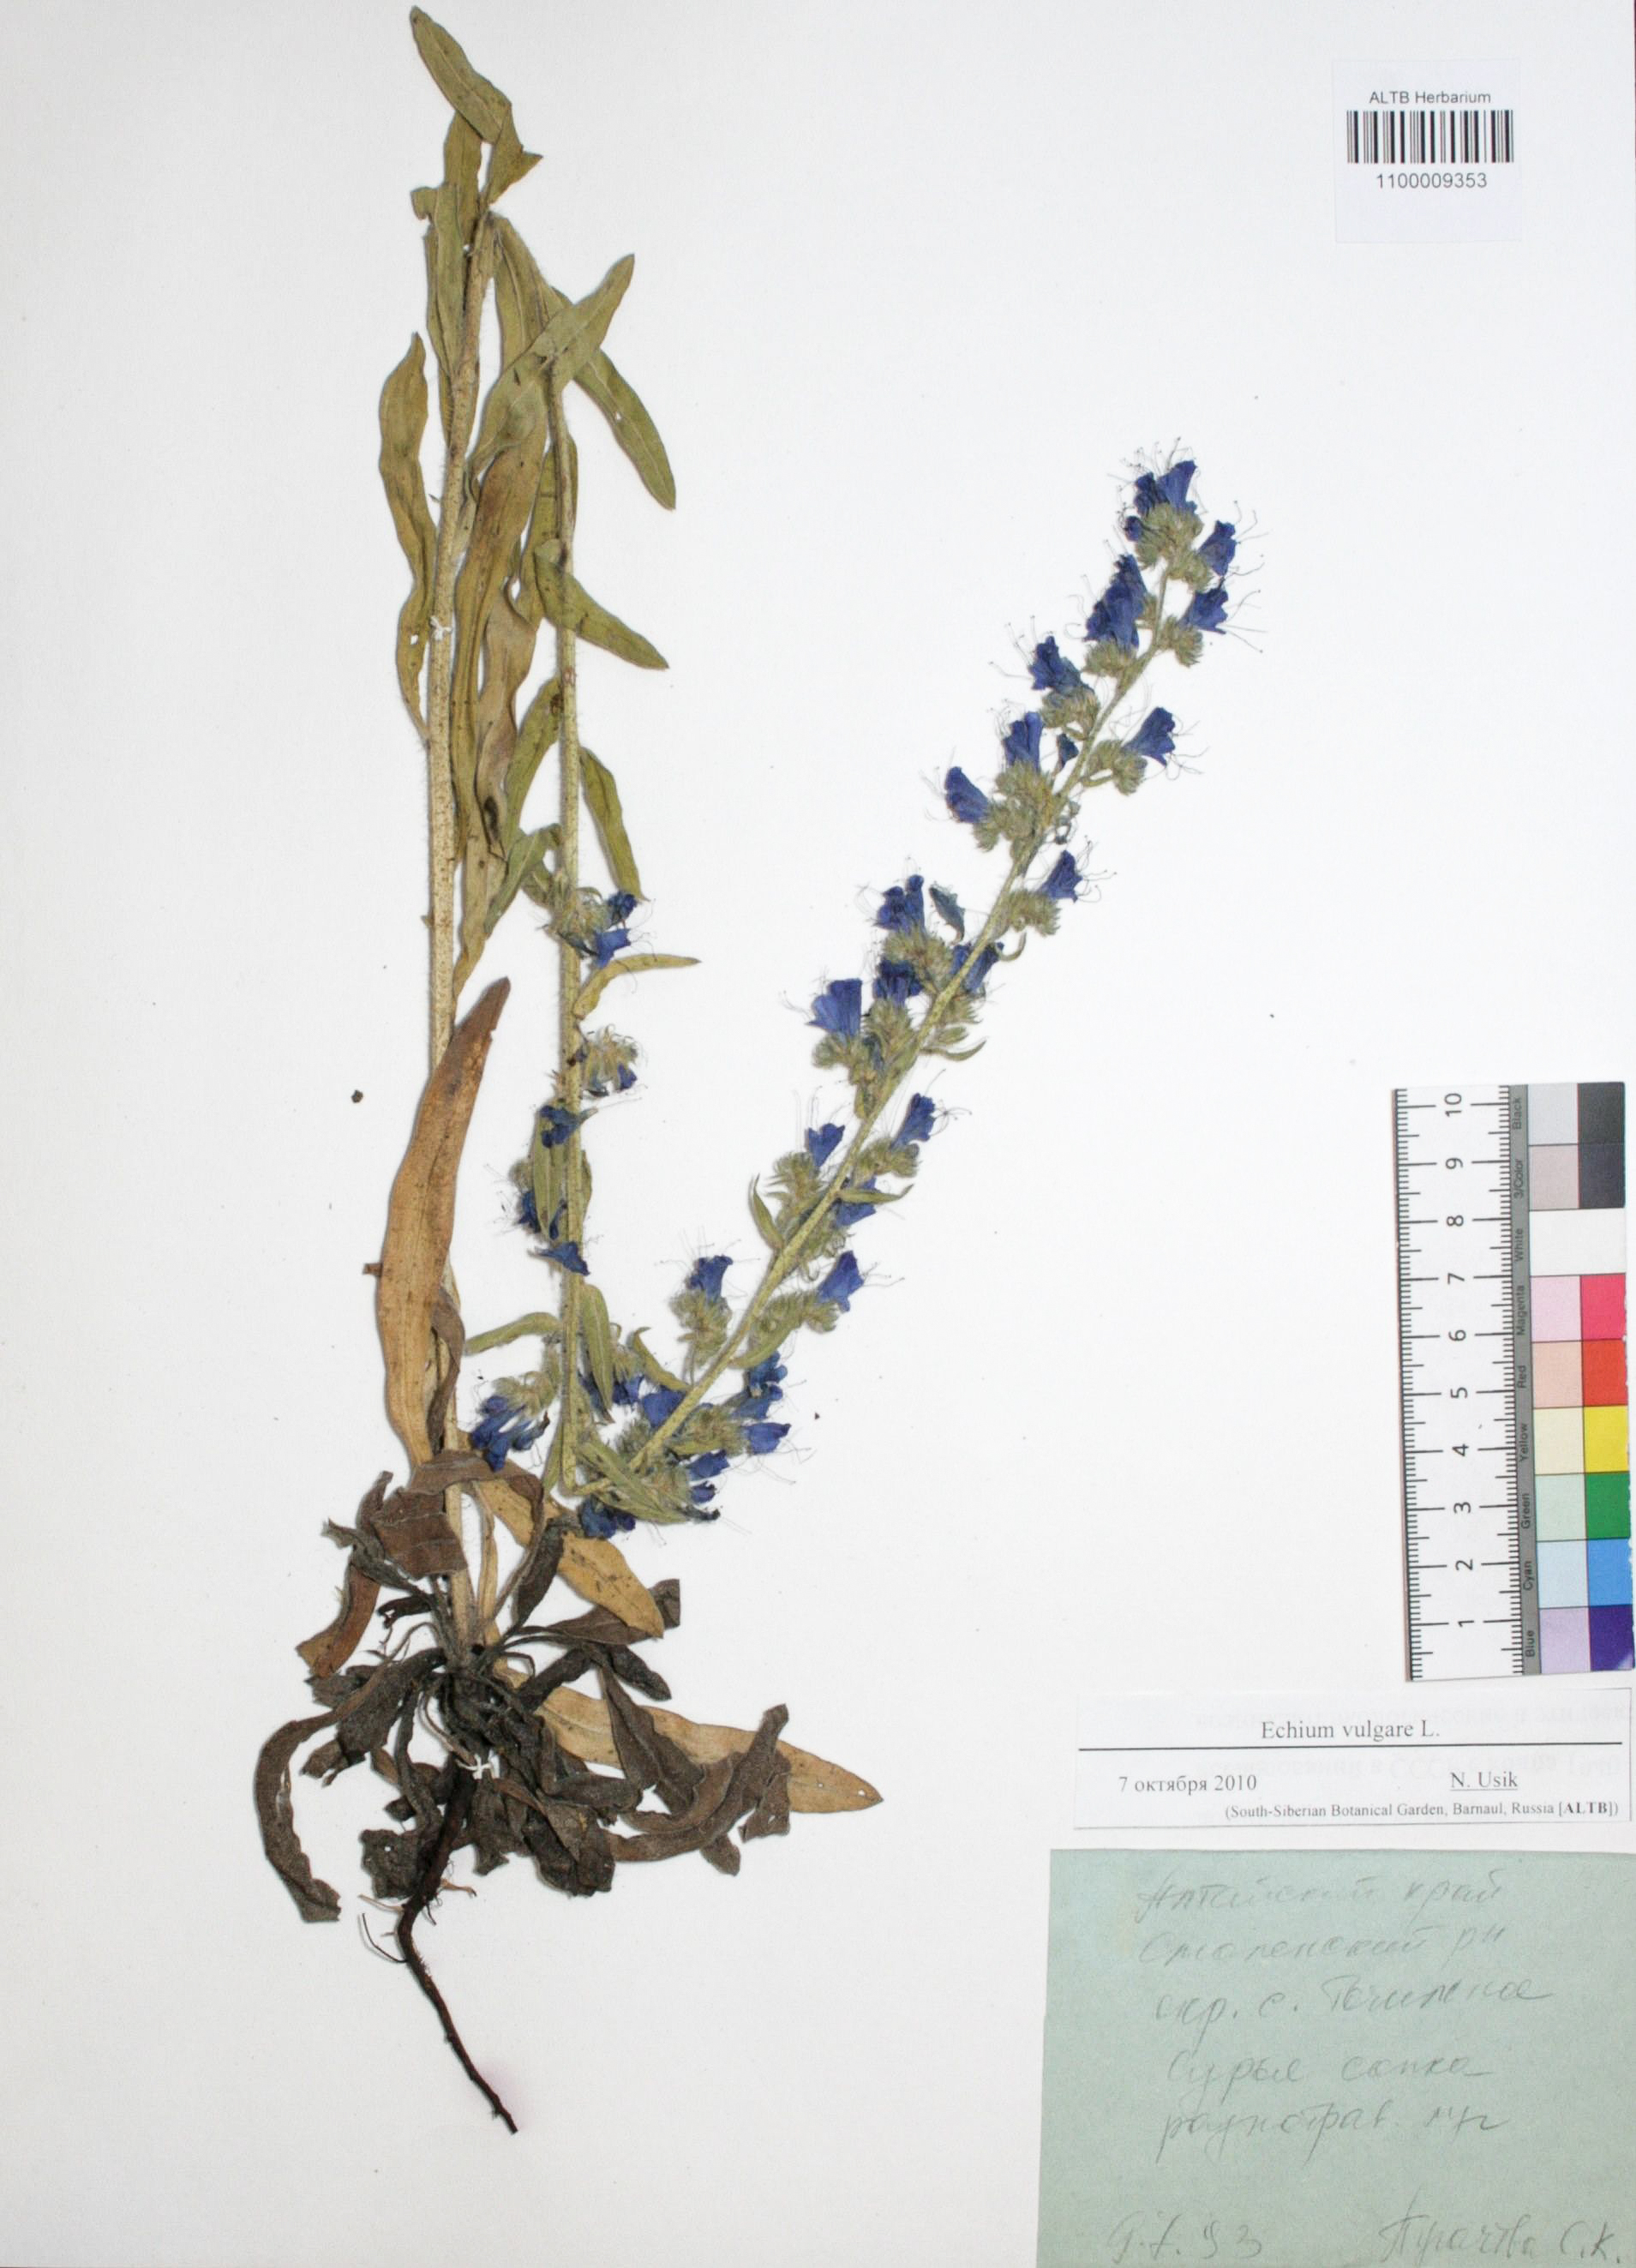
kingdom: Plantae
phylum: Tracheophyta
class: Magnoliopsida
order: Boraginales
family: Boraginaceae
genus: Echium
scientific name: Echium vulgare
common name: Common viper's bugloss
